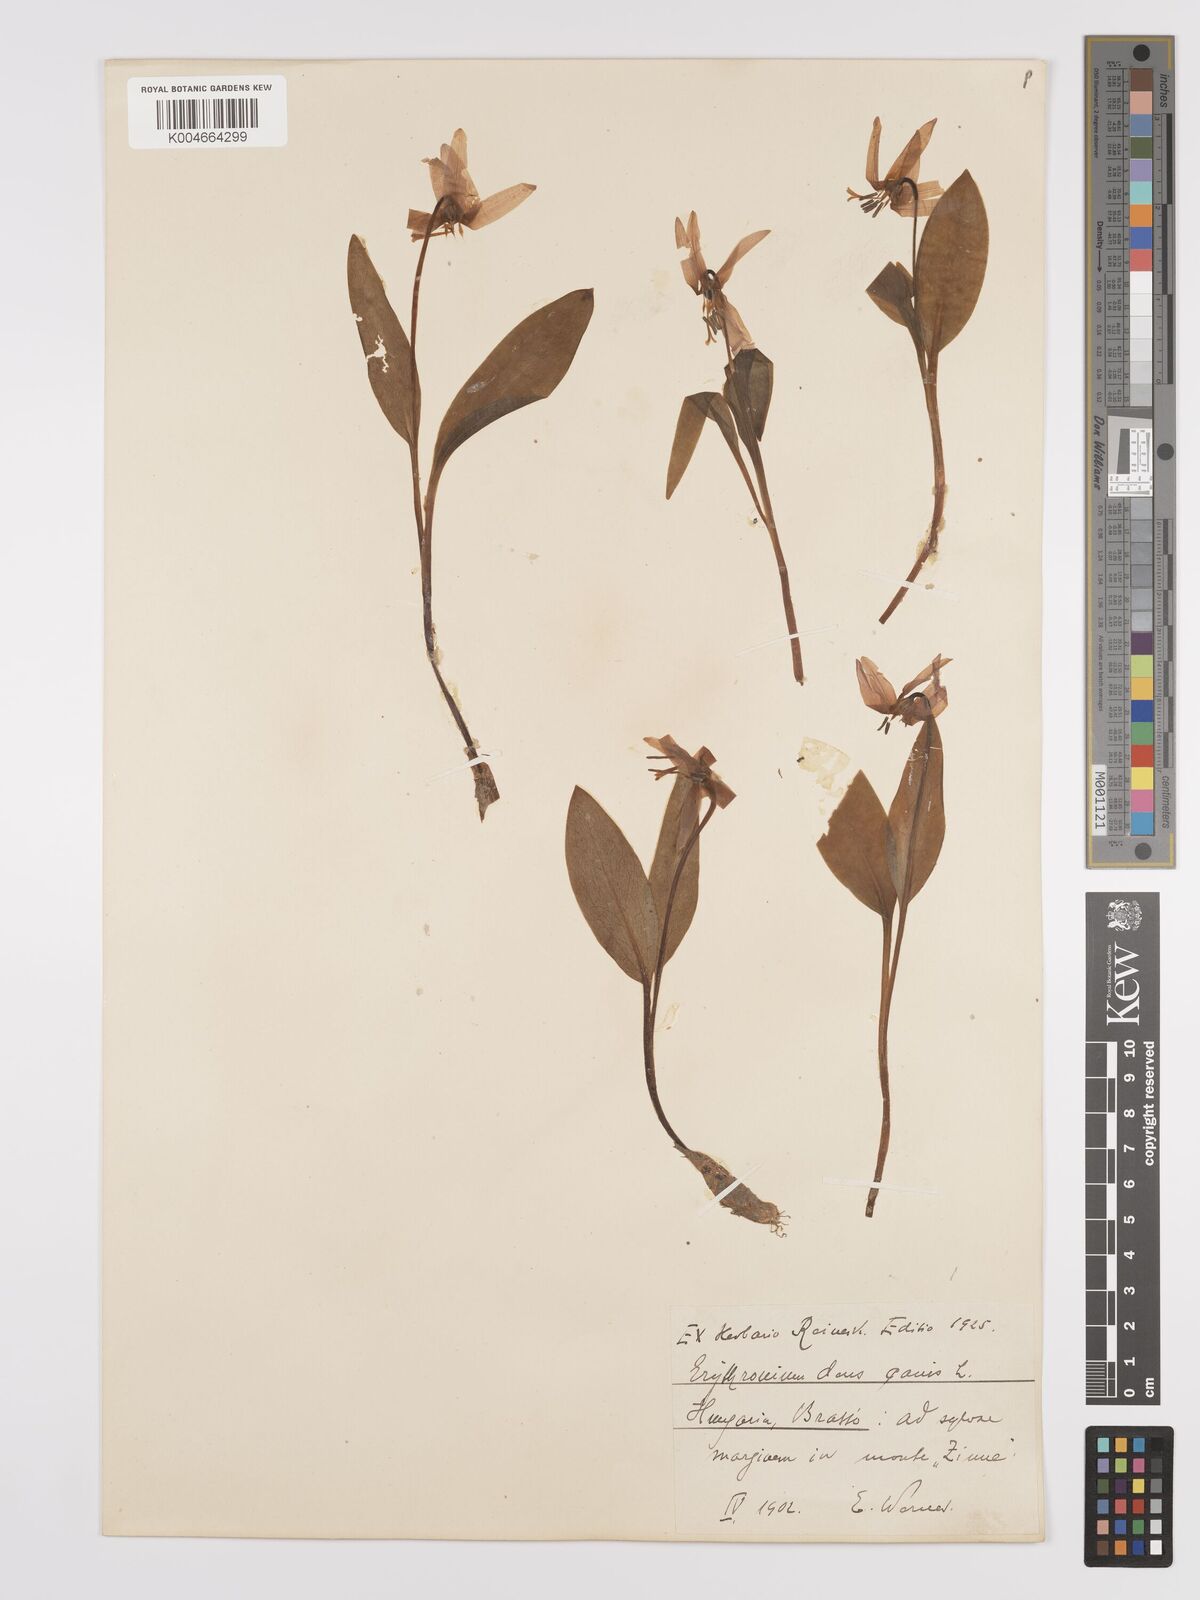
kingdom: Plantae
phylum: Tracheophyta
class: Liliopsida
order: Liliales
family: Liliaceae
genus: Erythronium
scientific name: Erythronium dens-canis
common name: Dog's-tooth-violet
